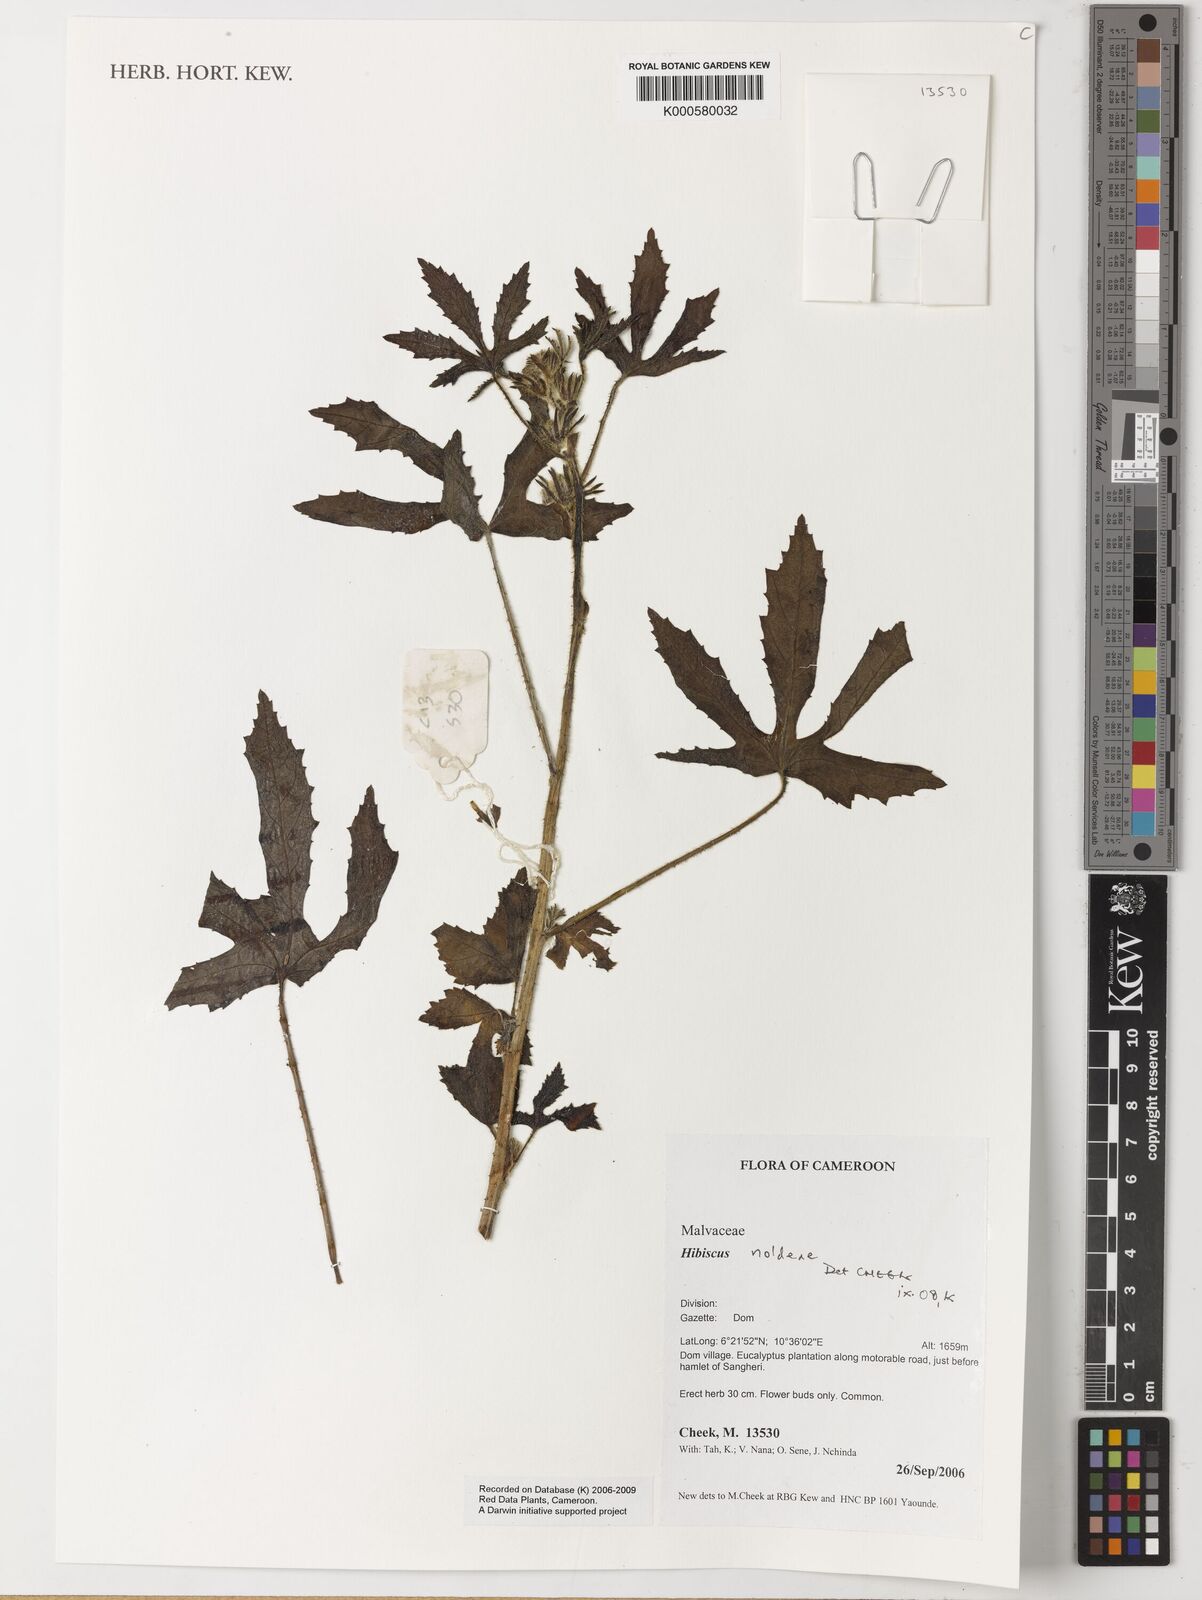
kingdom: Plantae
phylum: Tracheophyta
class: Magnoliopsida
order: Malvales
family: Malvaceae
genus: Hibiscus
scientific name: Hibiscus noldeae
